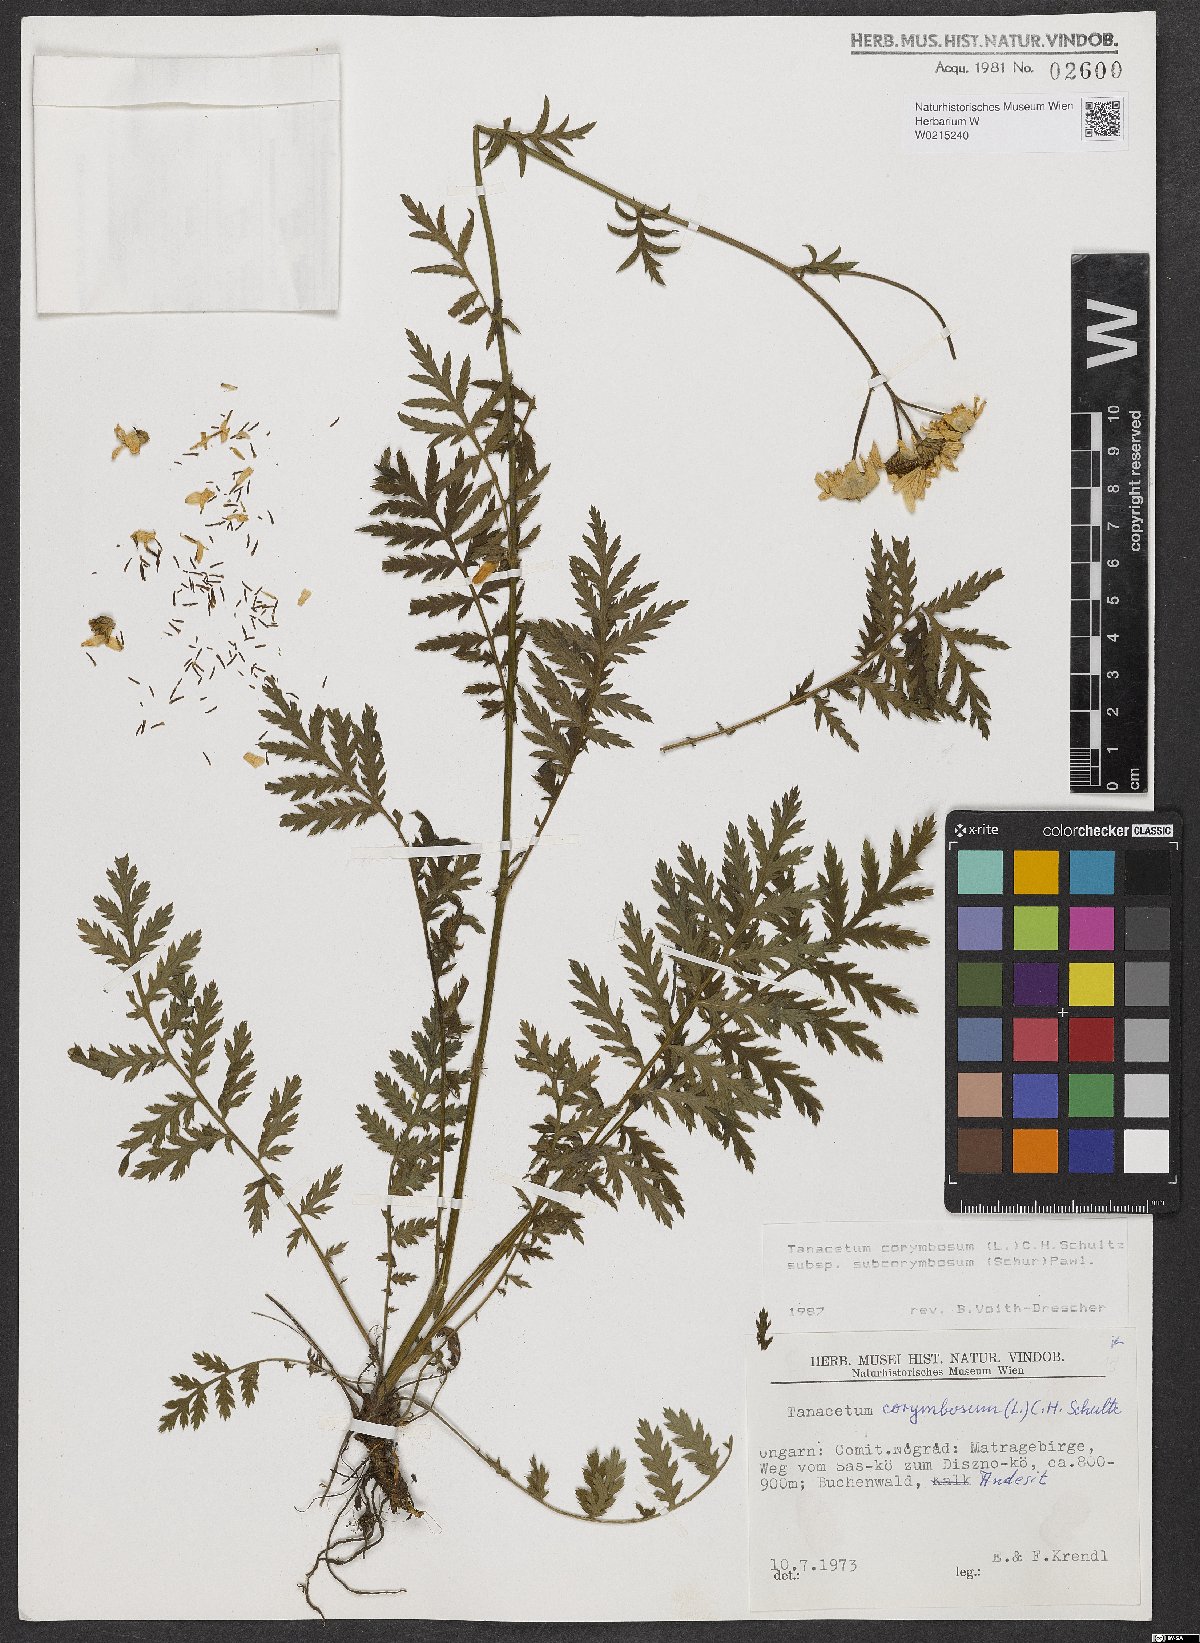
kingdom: Plantae
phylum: Tracheophyta
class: Magnoliopsida
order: Asterales
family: Asteraceae
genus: Tanacetum
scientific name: Tanacetum corymbosum
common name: Scentless feverfew
